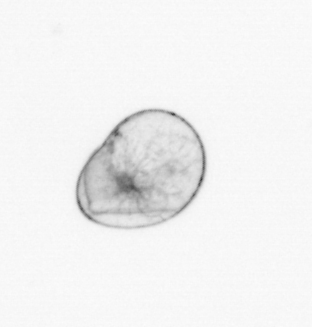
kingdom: Chromista
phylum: Myzozoa
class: Dinophyceae
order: Noctilucales
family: Noctilucaceae
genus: Noctiluca
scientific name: Noctiluca scintillans
